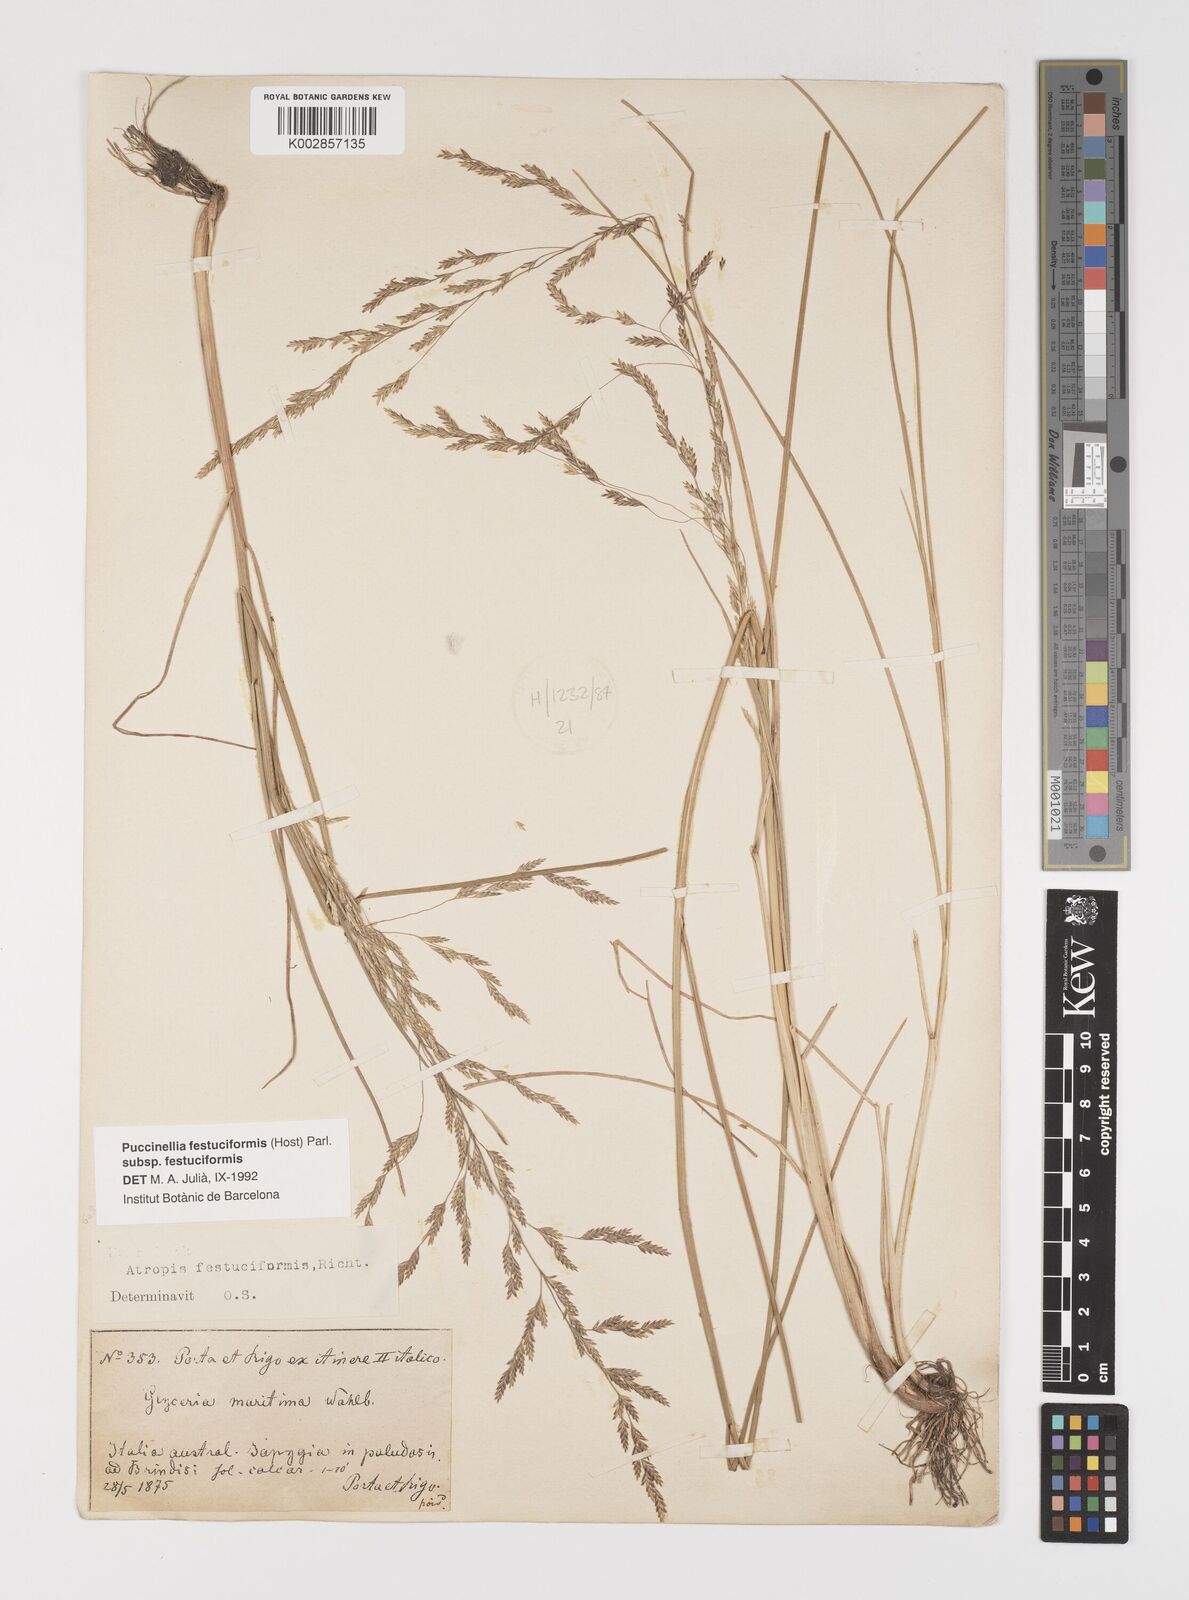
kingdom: Plantae
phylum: Tracheophyta
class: Liliopsida
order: Poales
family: Poaceae
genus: Puccinellia
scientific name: Puccinellia festuciformis
